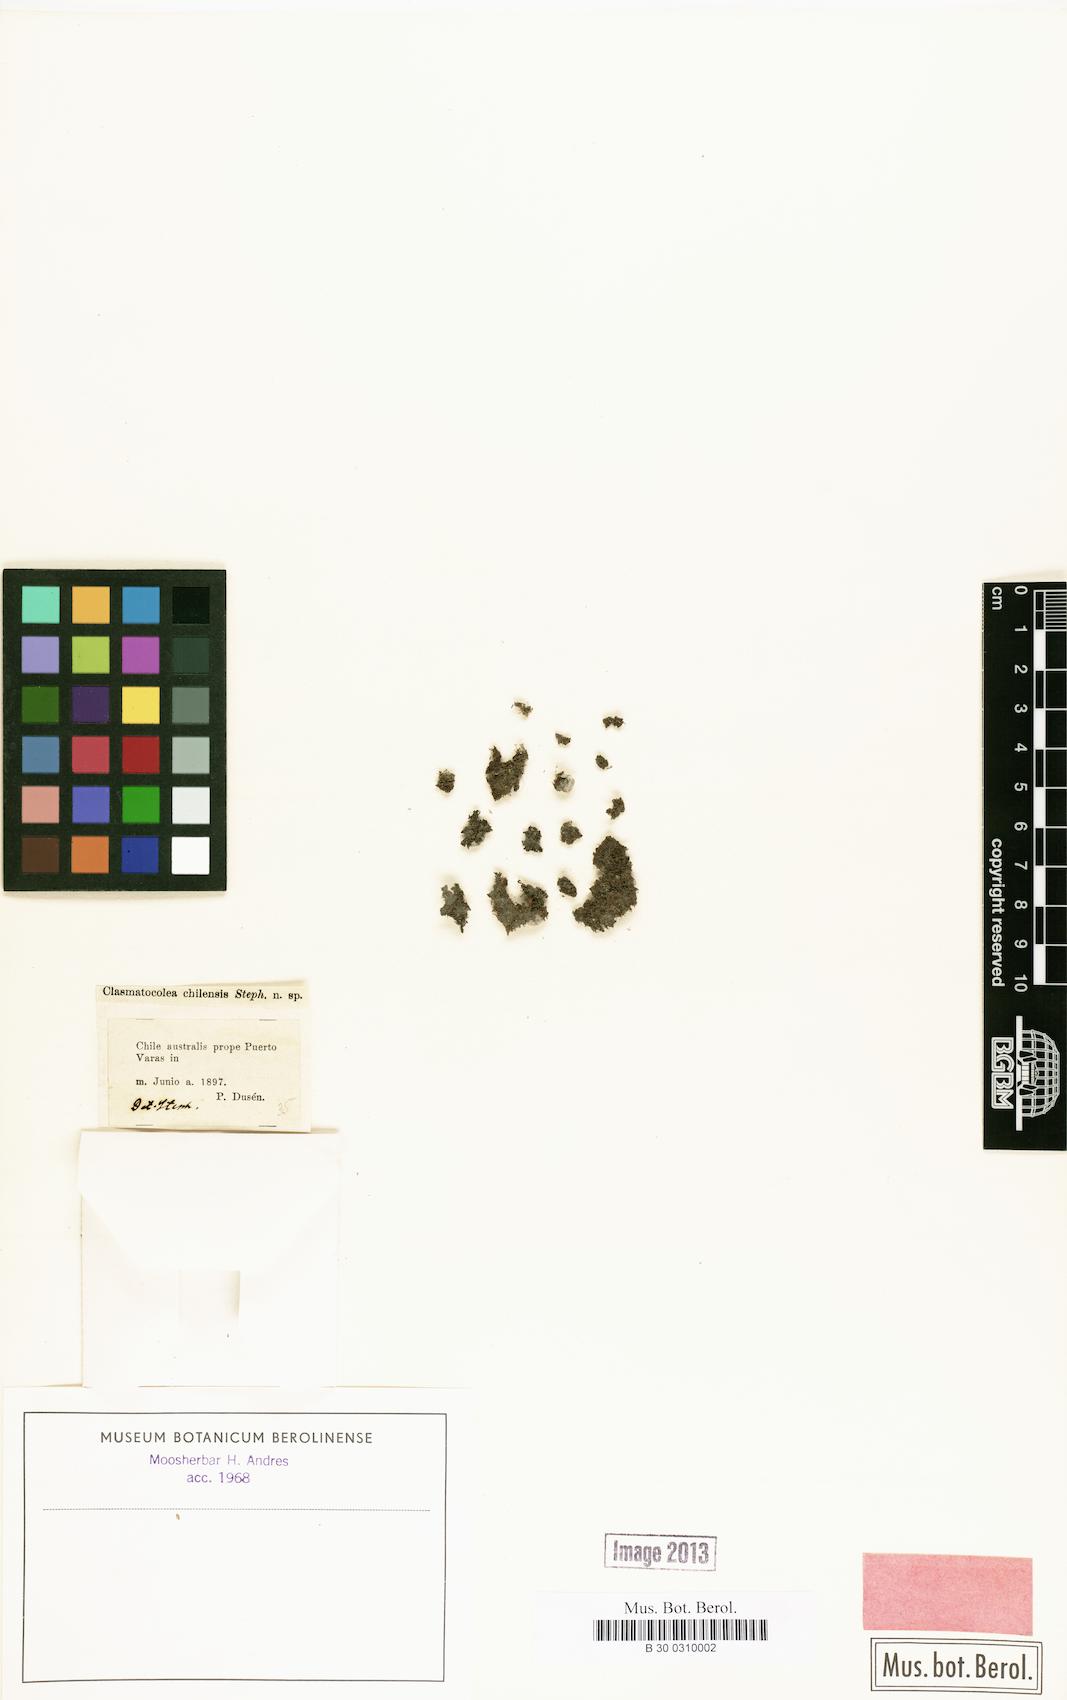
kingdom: Plantae
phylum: Marchantiophyta
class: Jungermanniopsida
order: Jungermanniales
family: Lophocoleaceae
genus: Clasmatocolea
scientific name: Clasmatocolea vermicularis
